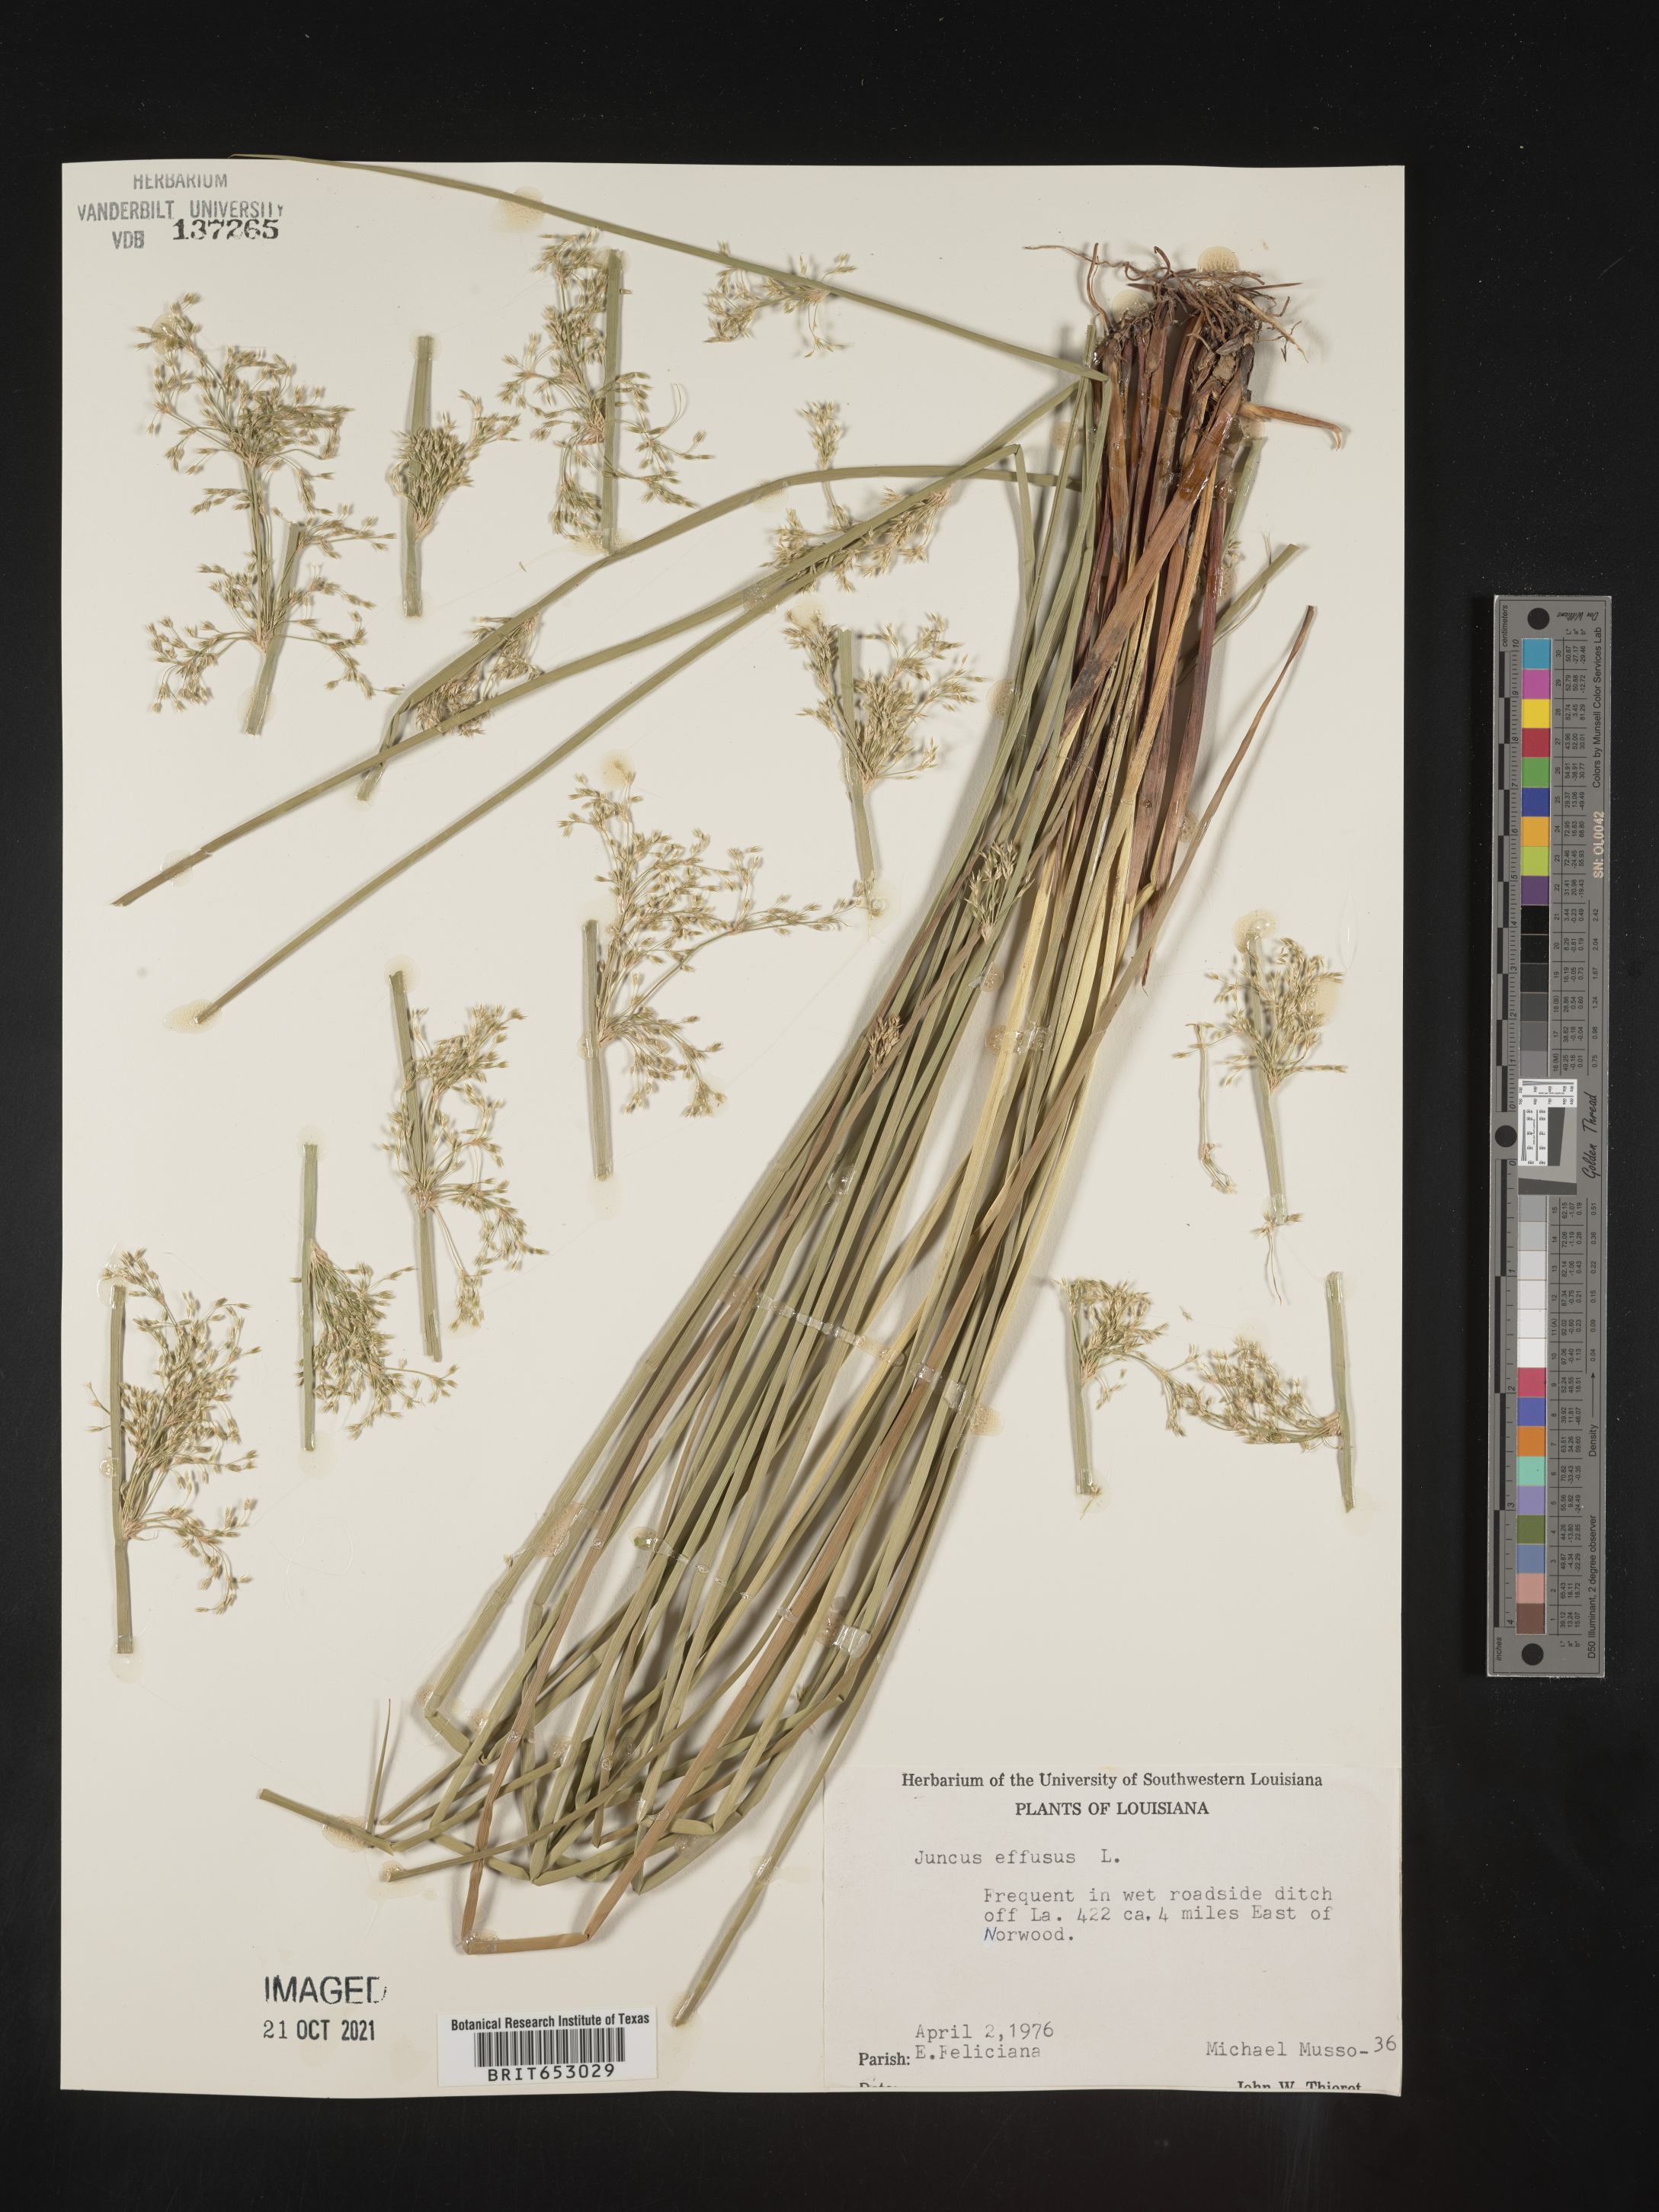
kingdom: Plantae
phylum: Tracheophyta
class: Liliopsida
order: Poales
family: Juncaceae
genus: Juncus
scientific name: Juncus effusus
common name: Soft rush
